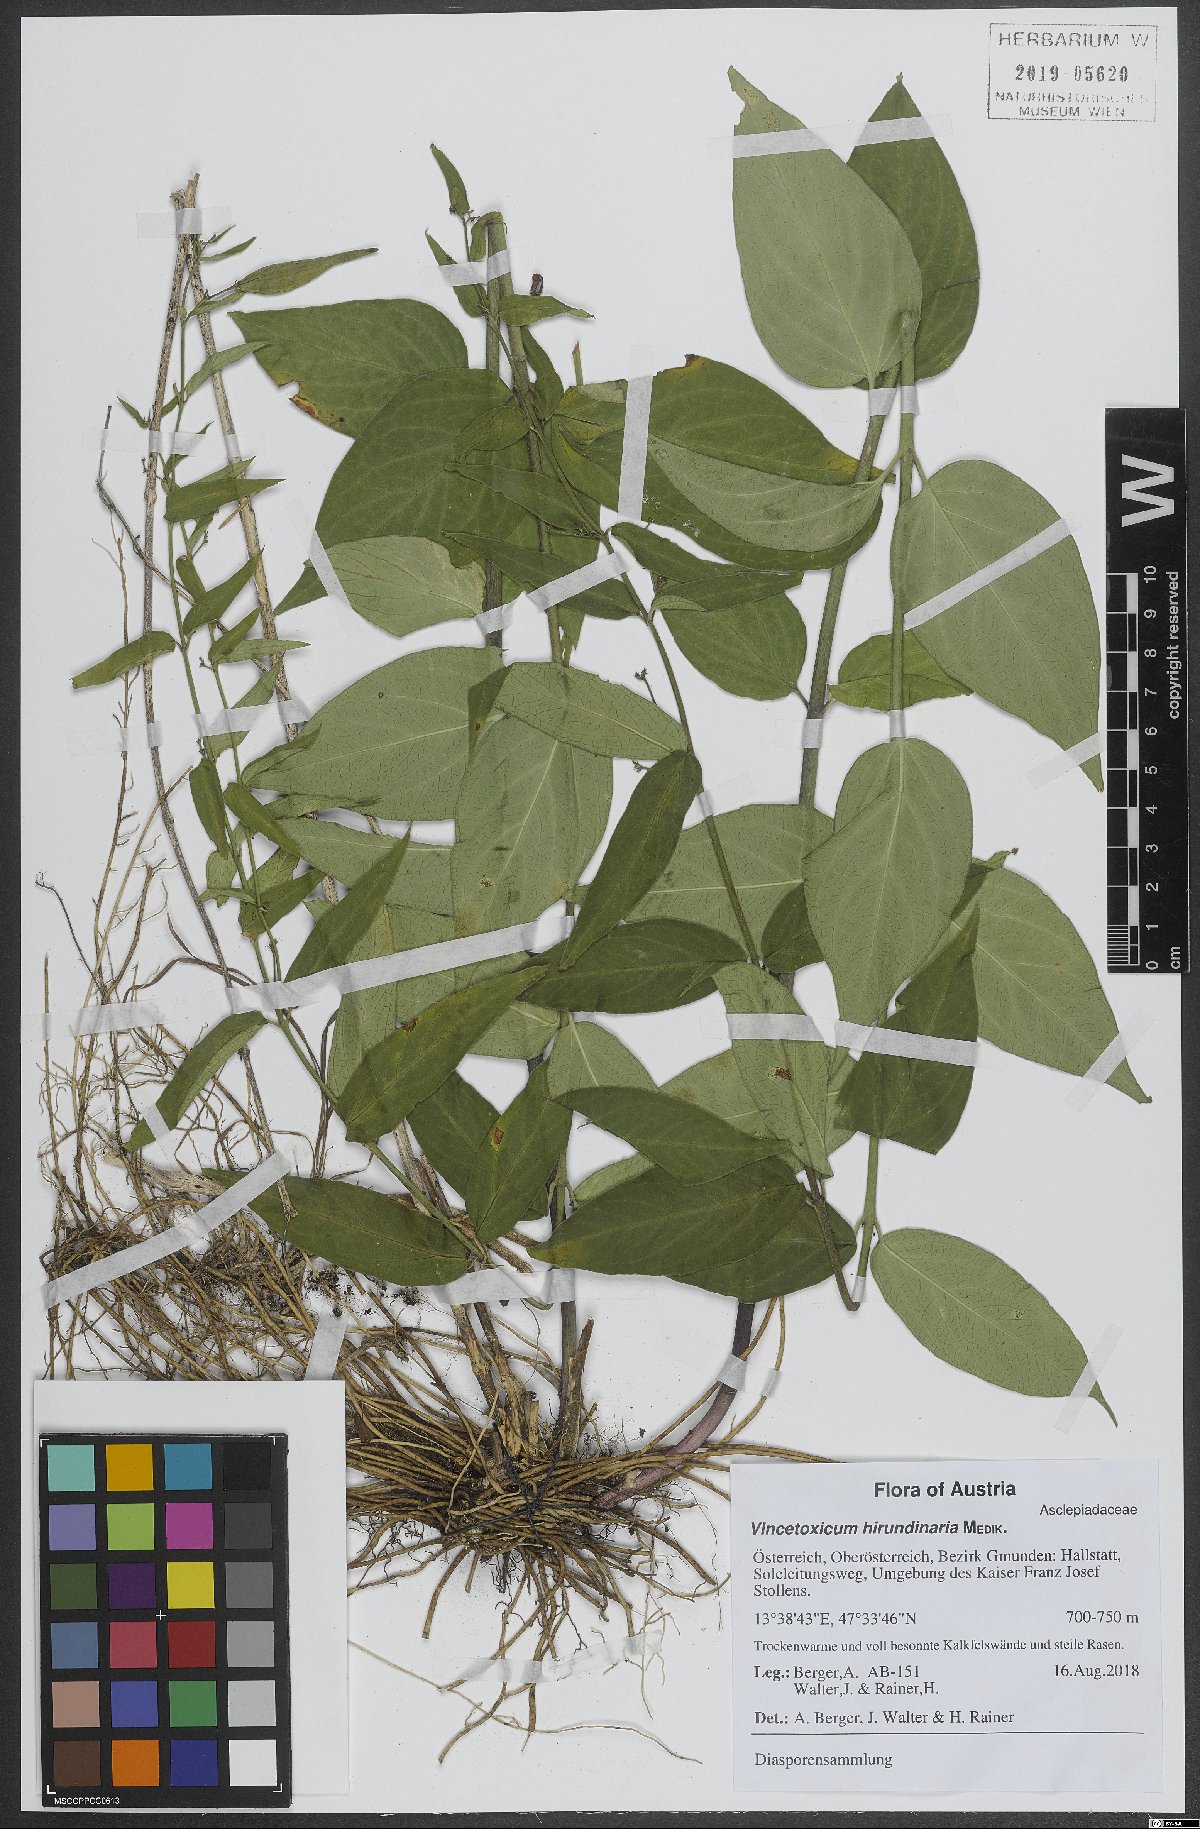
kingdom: Plantae
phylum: Tracheophyta
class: Magnoliopsida
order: Gentianales
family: Apocynaceae
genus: Vincetoxicum
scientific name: Vincetoxicum hirundinaria
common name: White swallowwort
